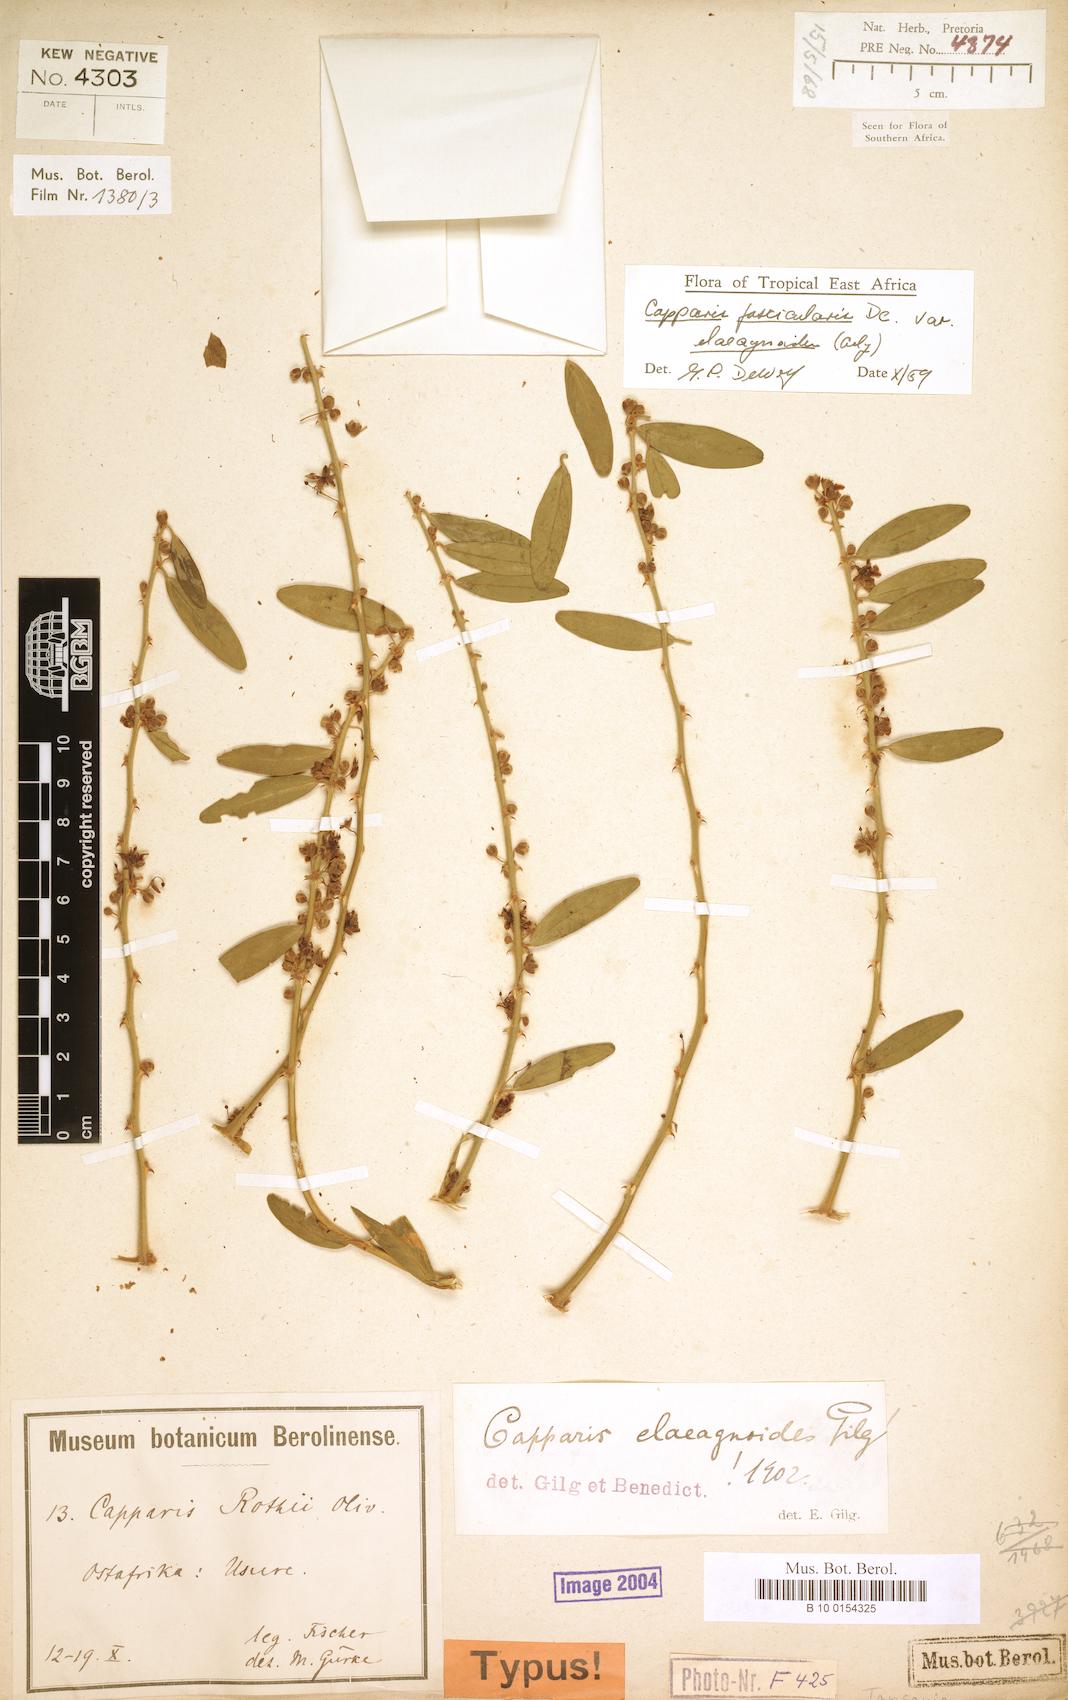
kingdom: Plantae
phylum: Tracheophyta
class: Magnoliopsida
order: Brassicales
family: Capparaceae
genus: Capparis
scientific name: Capparis fascicularis
